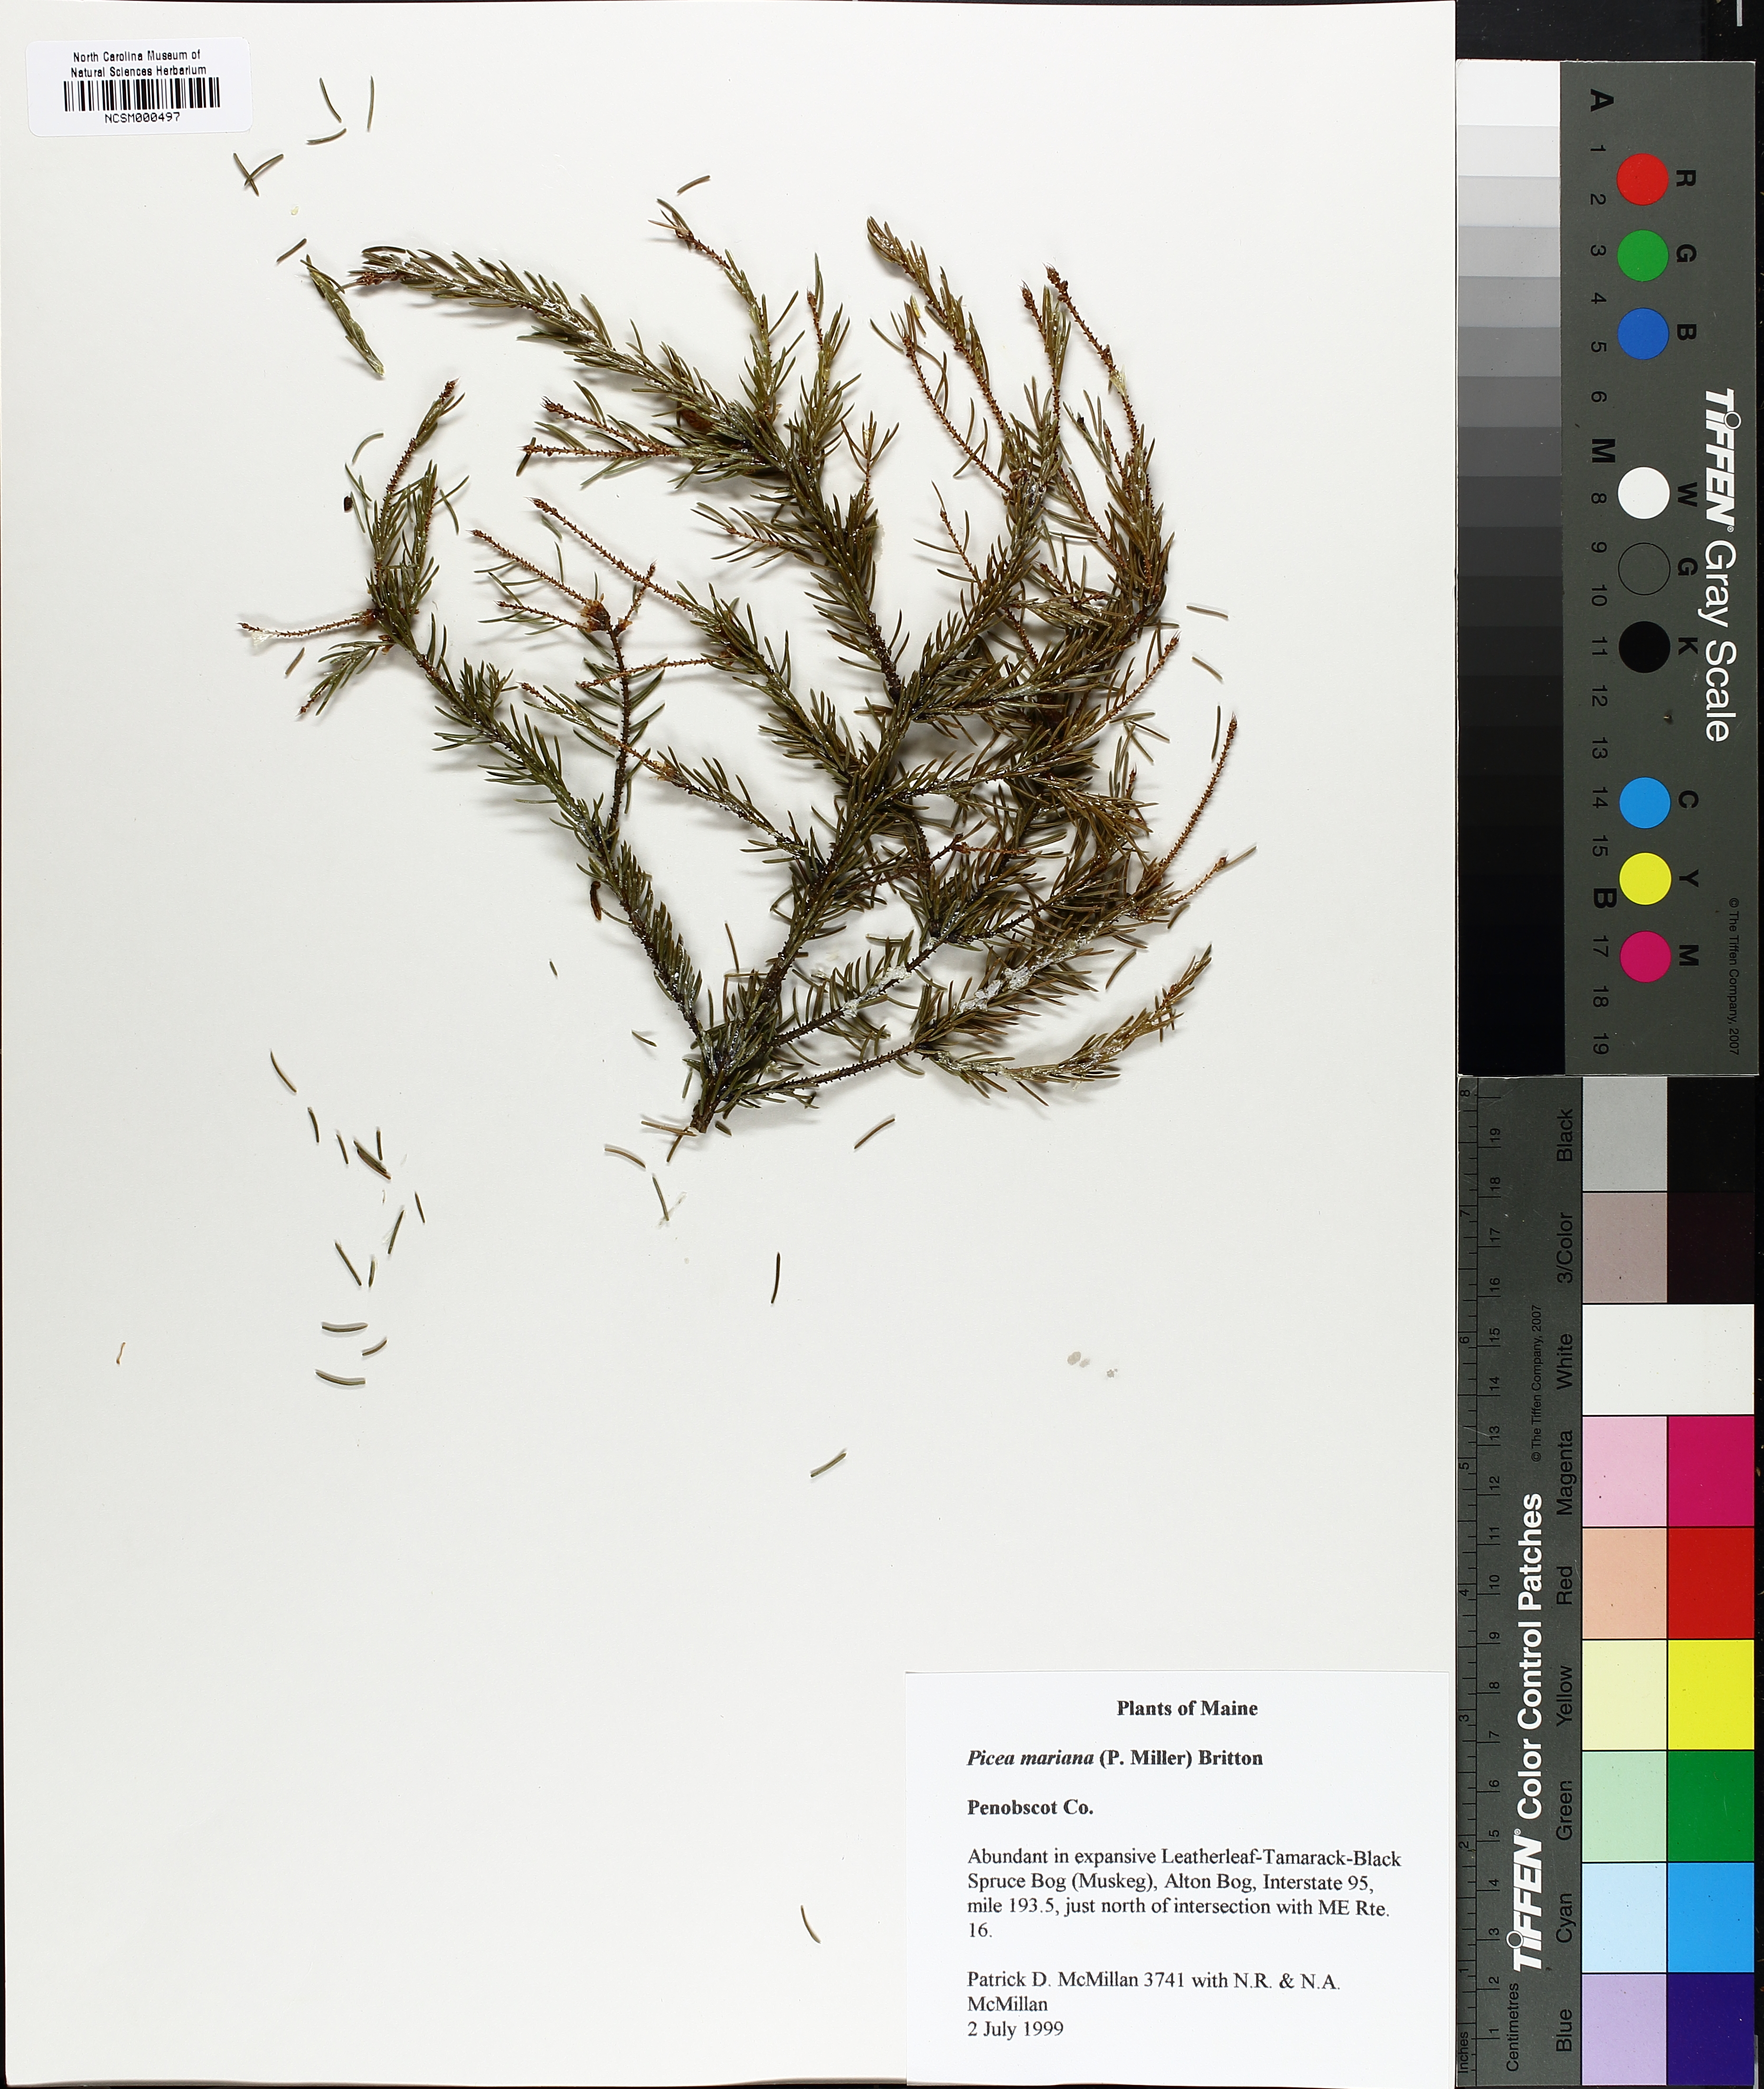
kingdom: Plantae
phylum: Tracheophyta
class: Pinopsida
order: Pinales
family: Pinaceae
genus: Picea
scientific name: Picea mariana
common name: Black spruce
